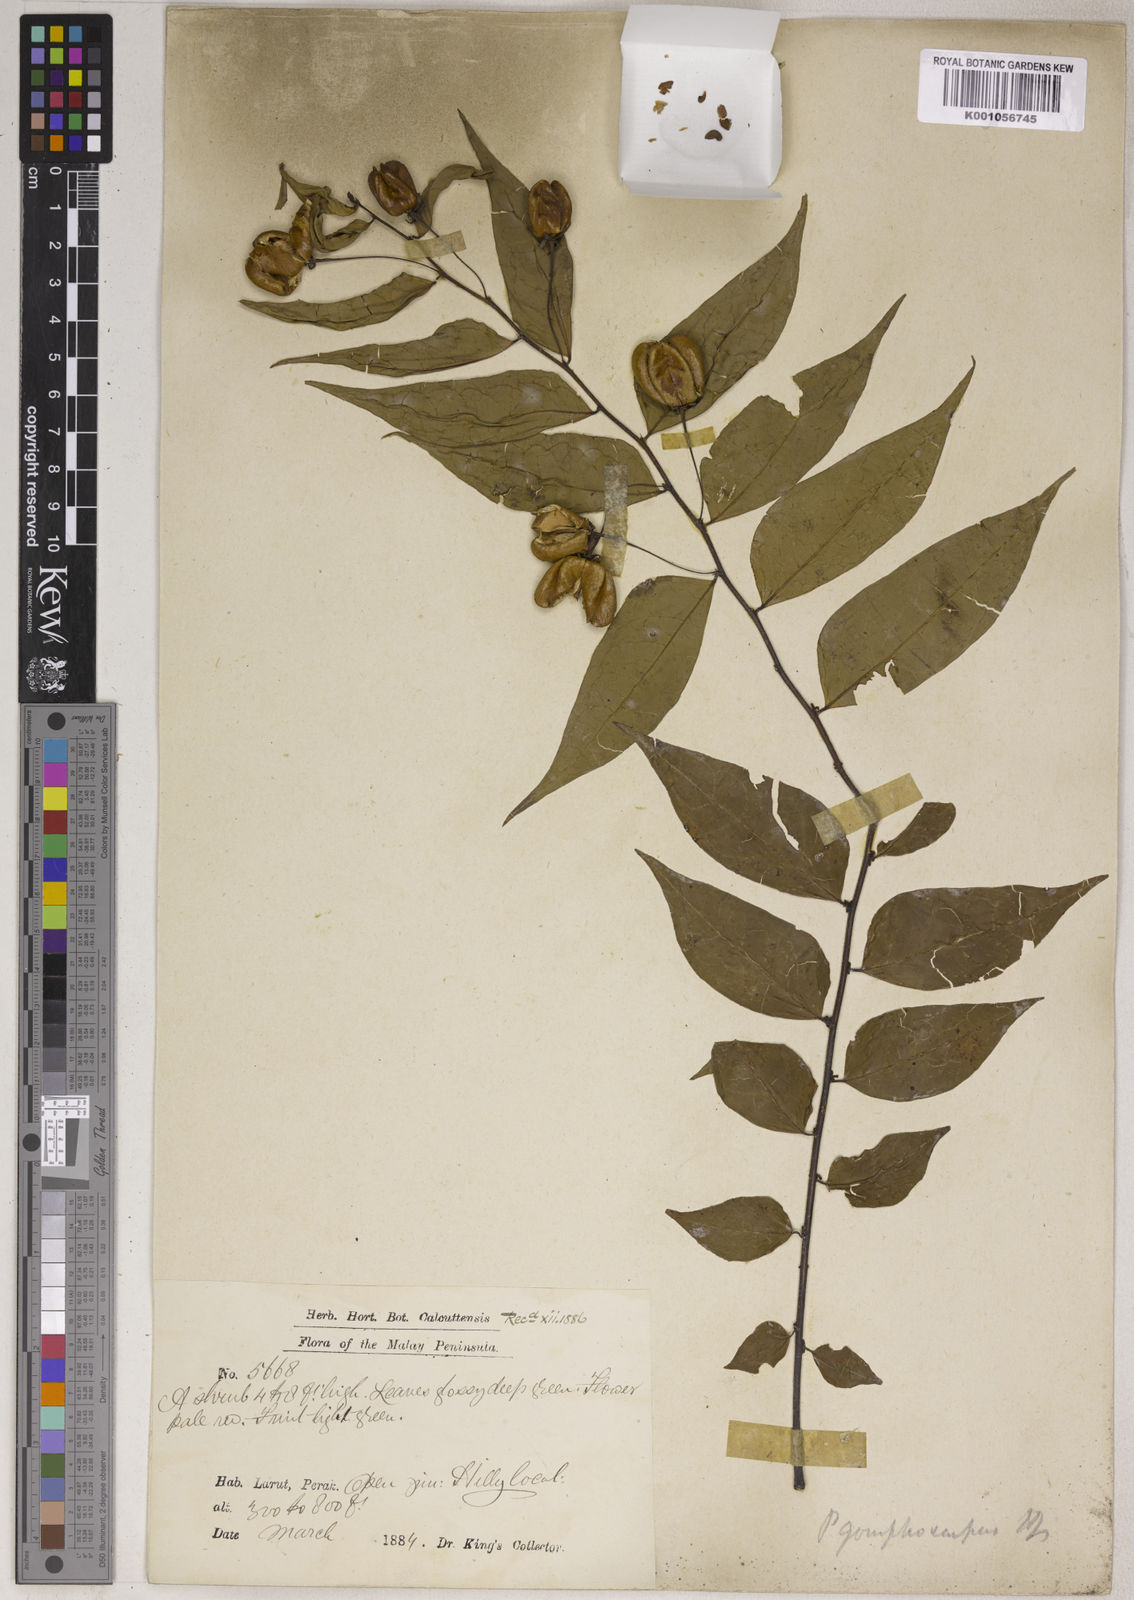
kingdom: Plantae
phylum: Tracheophyta
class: Magnoliopsida
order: Malpighiales
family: Phyllanthaceae
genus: Phyllanthus
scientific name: Phyllanthus gomphocarpus
